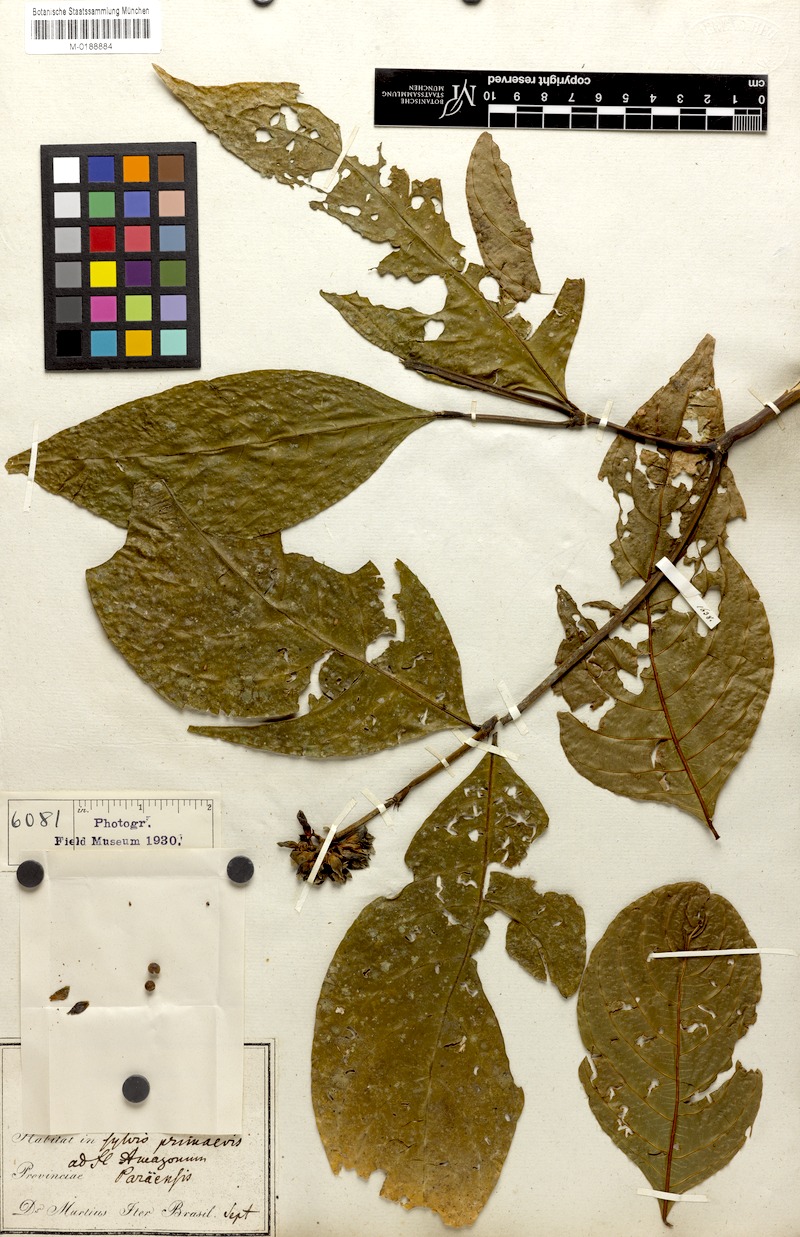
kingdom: Plantae
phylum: Tracheophyta
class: Magnoliopsida
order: Gentianales
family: Rubiaceae
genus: Palicourea
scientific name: Palicourea justiciifolia
